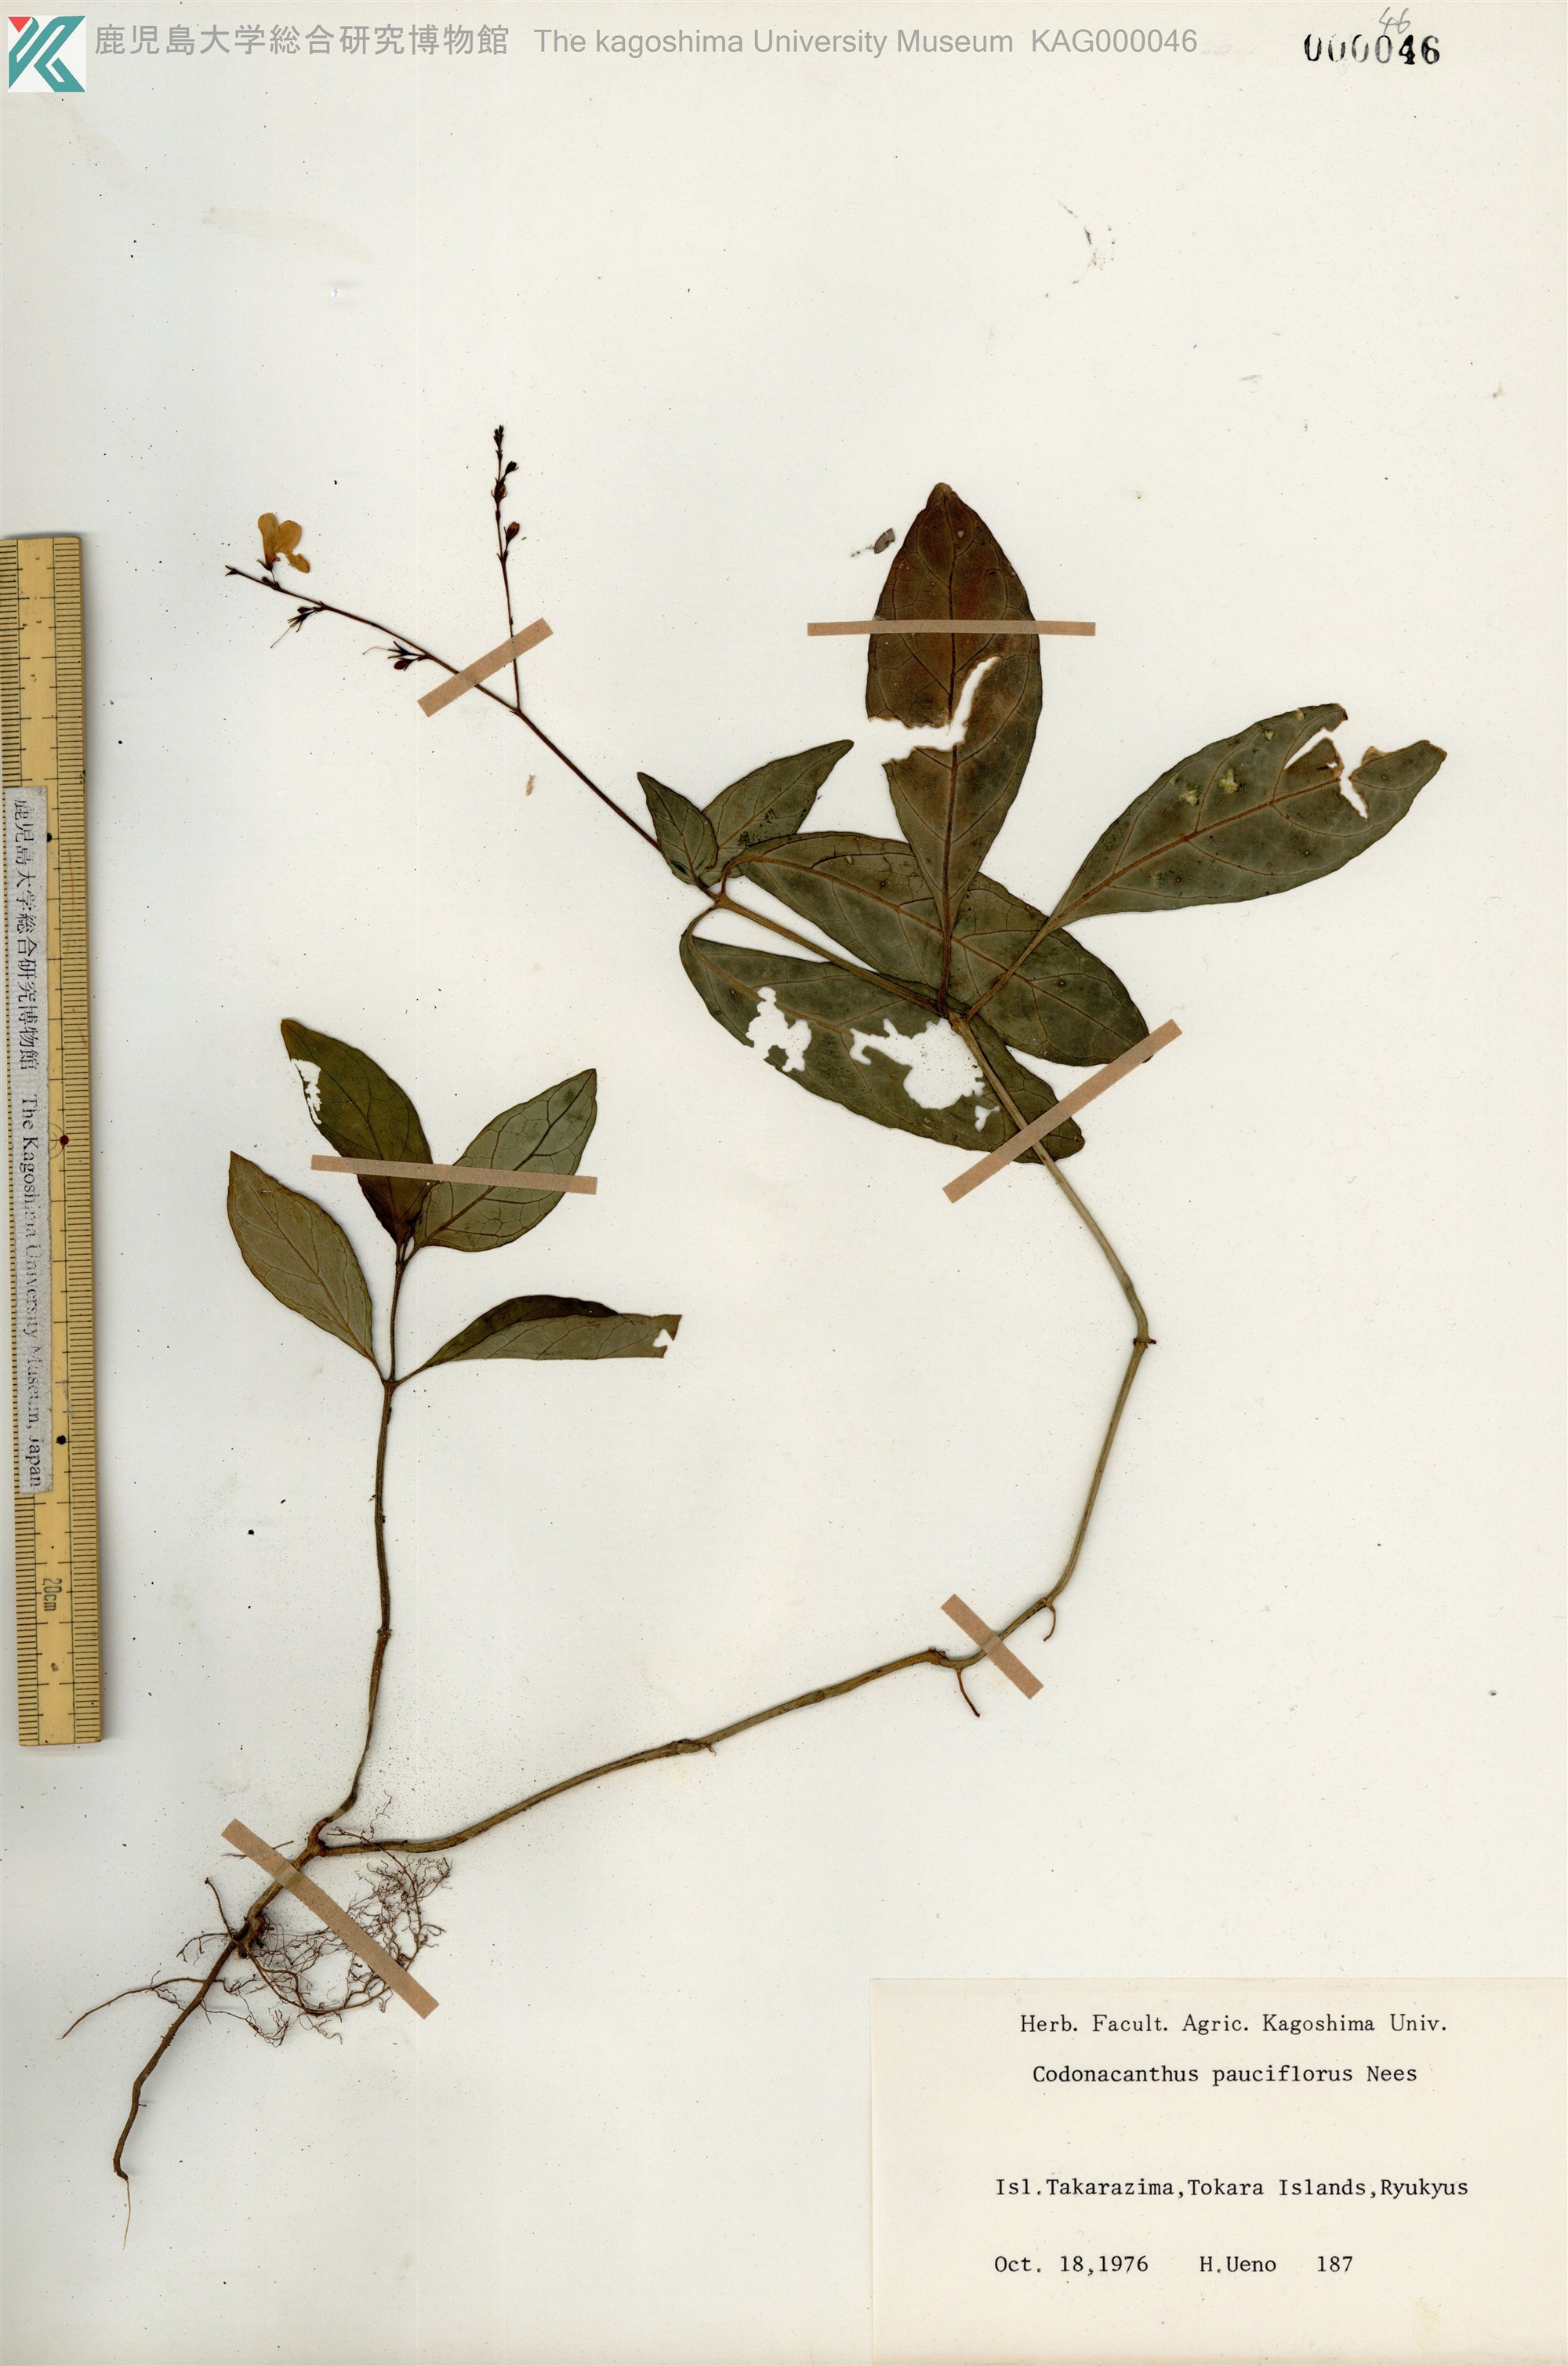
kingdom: Plantae
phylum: Tracheophyta
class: Magnoliopsida
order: Lamiales
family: Acanthaceae
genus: Codonacanthus
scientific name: Codonacanthus pauciflorus
